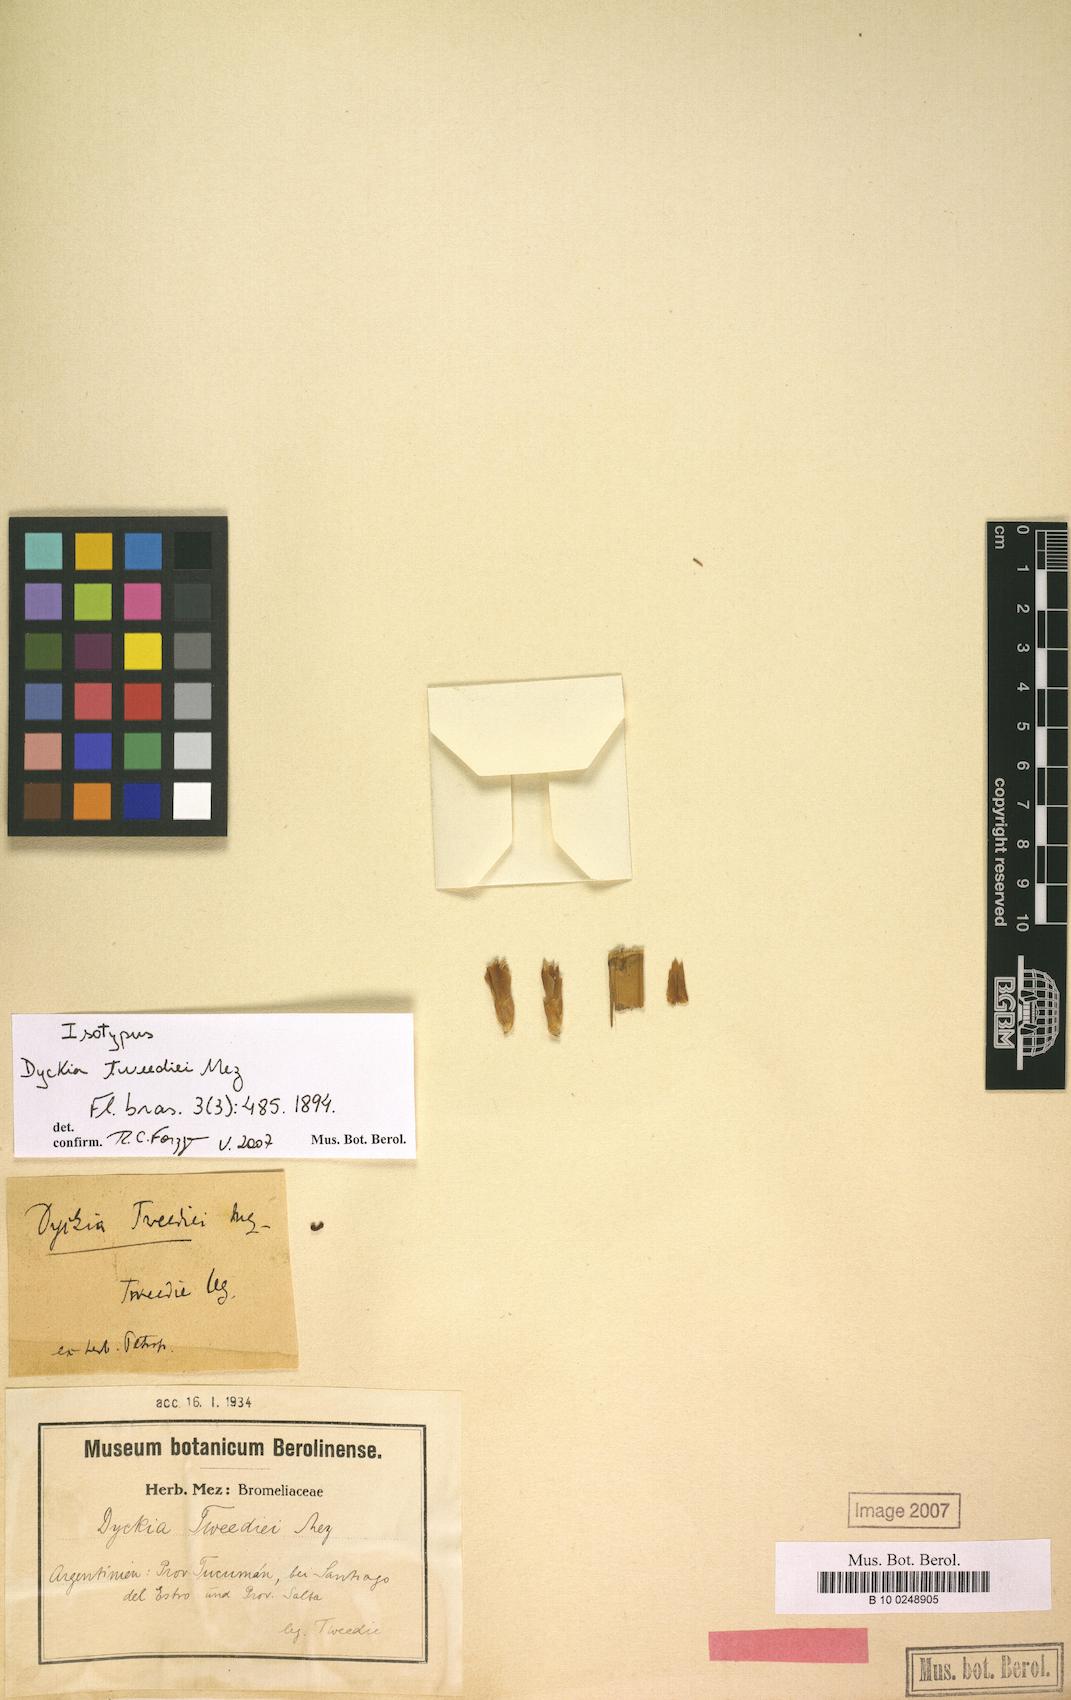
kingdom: Plantae
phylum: Tracheophyta
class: Liliopsida
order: Poales
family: Bromeliaceae
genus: Dyckia
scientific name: Dyckia tweediei
